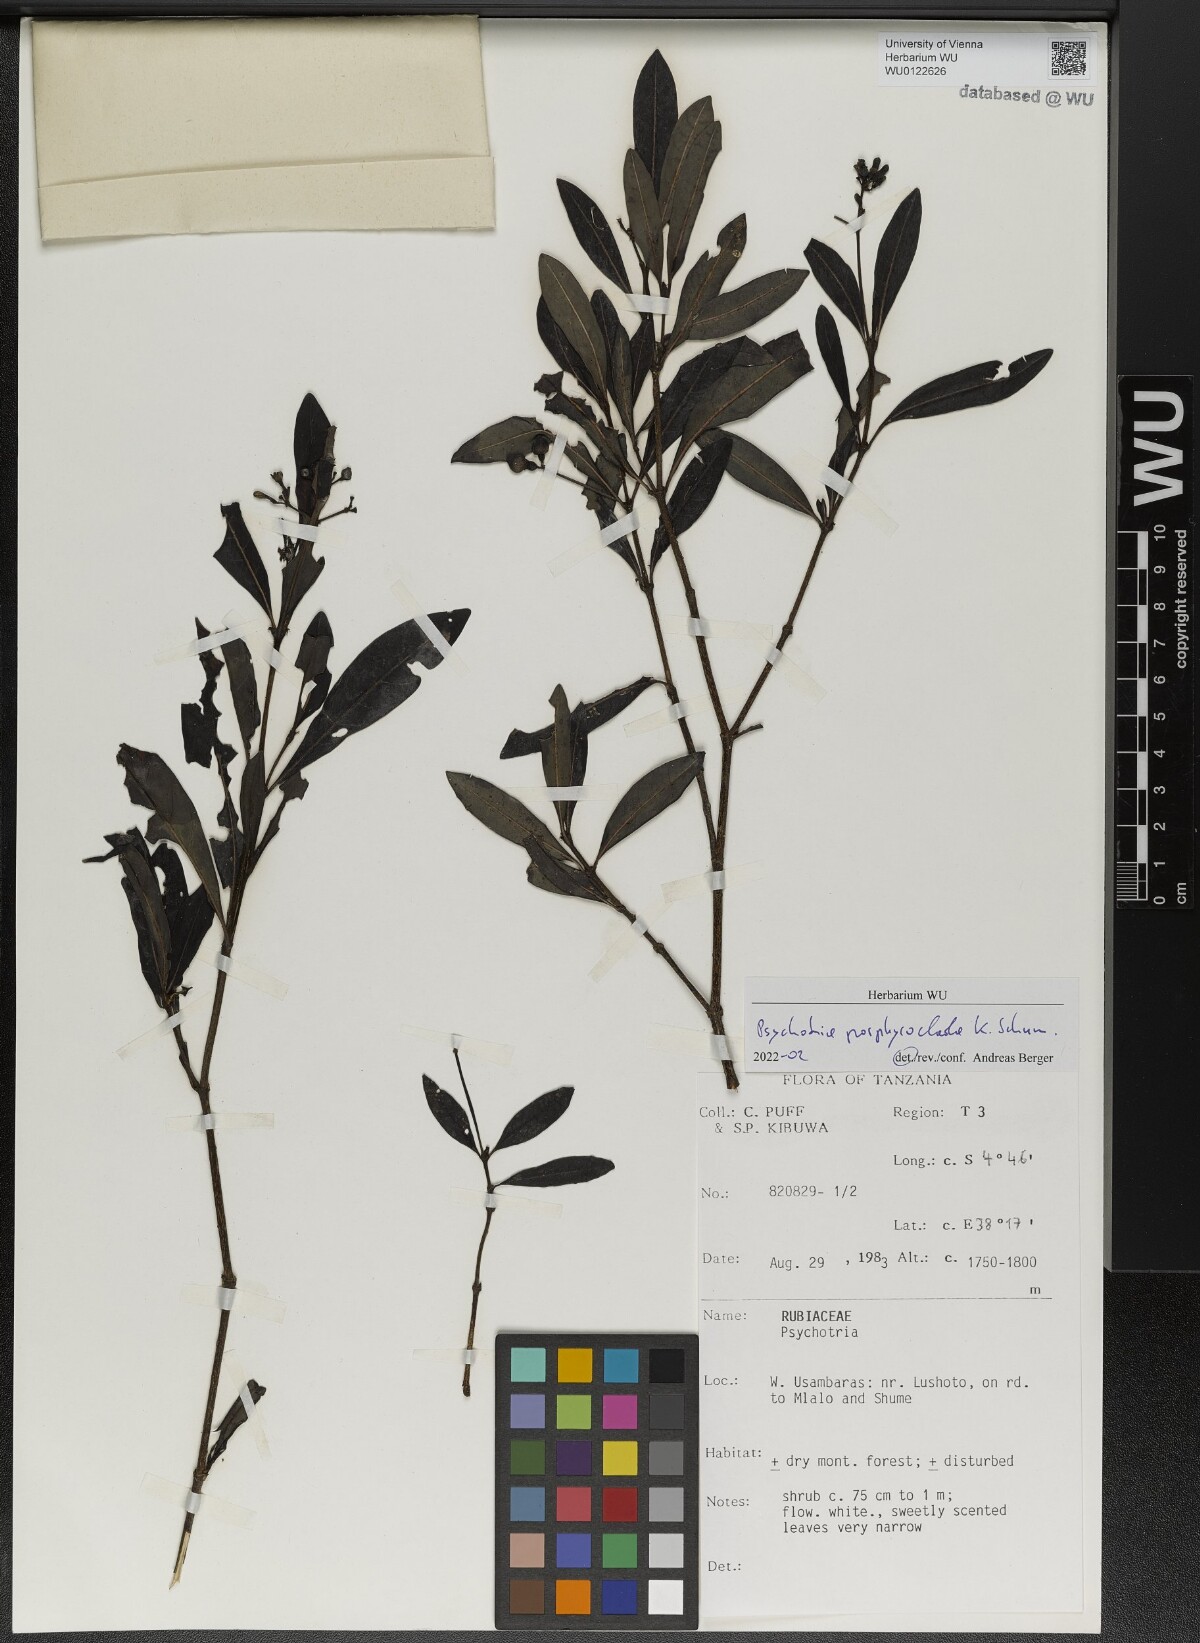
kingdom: Plantae
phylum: Tracheophyta
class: Magnoliopsida
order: Gentianales
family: Rubiaceae
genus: Psychotria
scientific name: Psychotria porphyroclada
